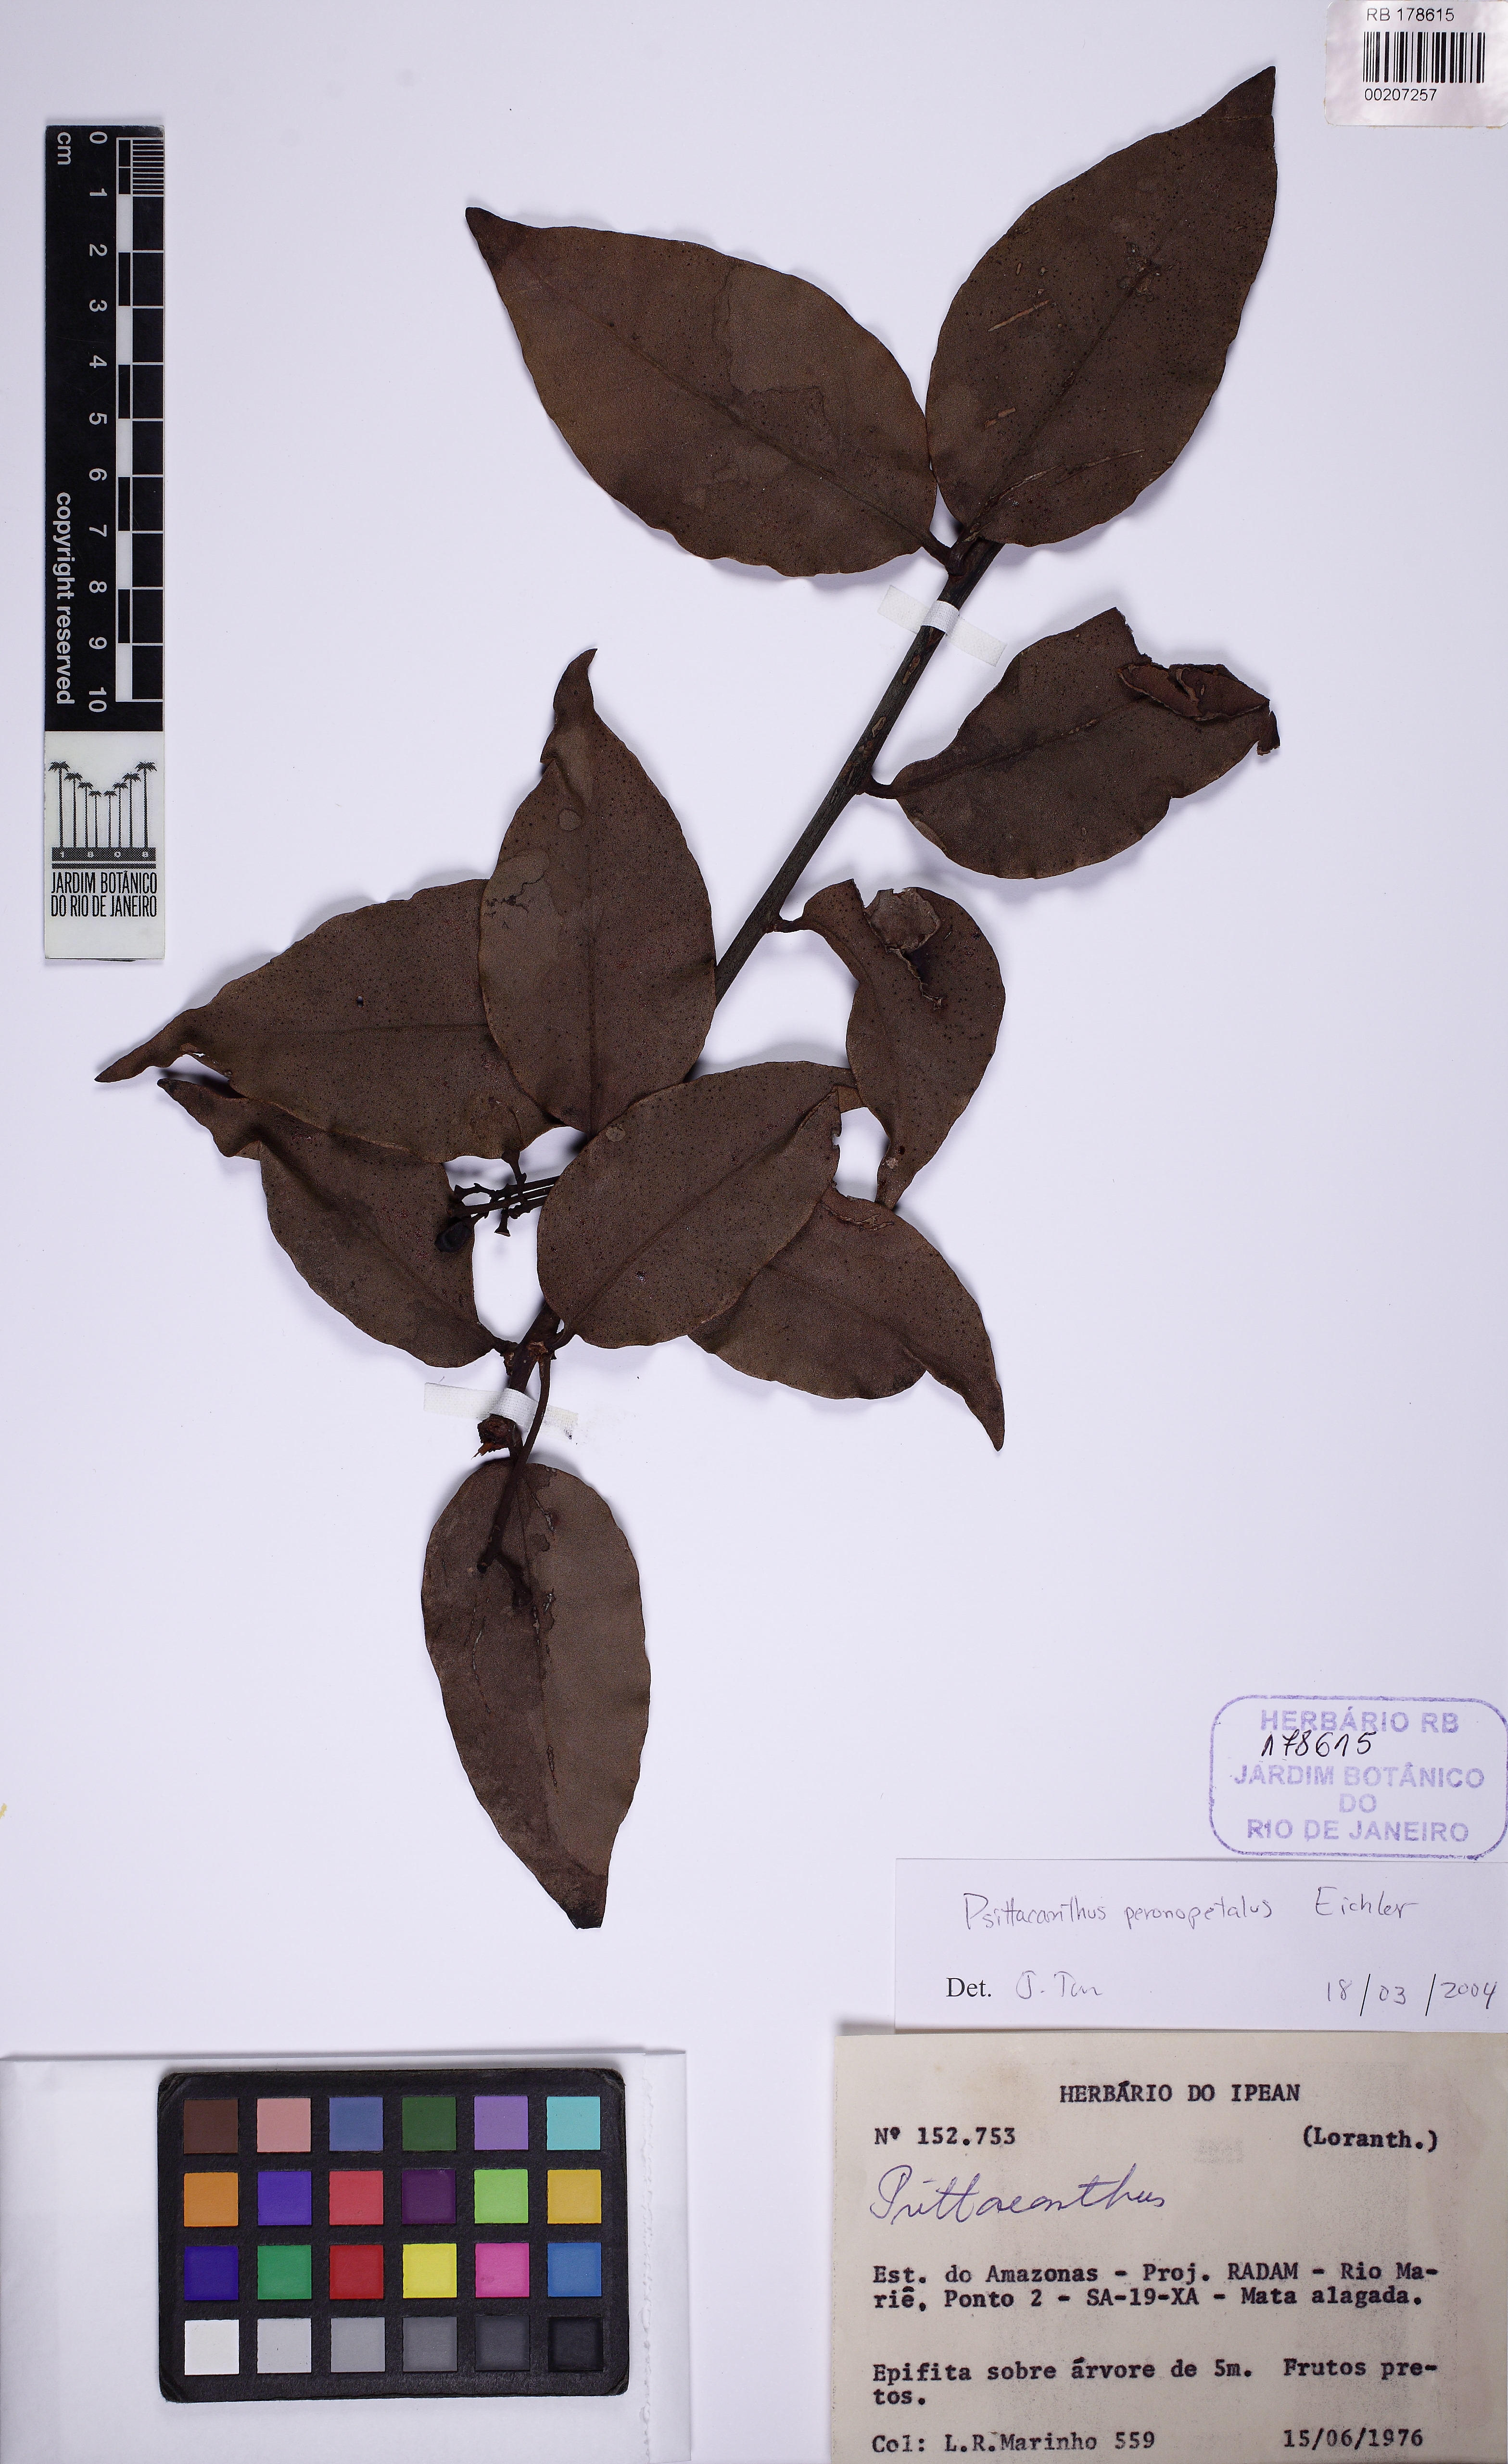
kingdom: Plantae
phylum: Tracheophyta
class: Magnoliopsida
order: Santalales
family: Loranthaceae
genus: Psittacanthus
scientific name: Psittacanthus peronopetalus
